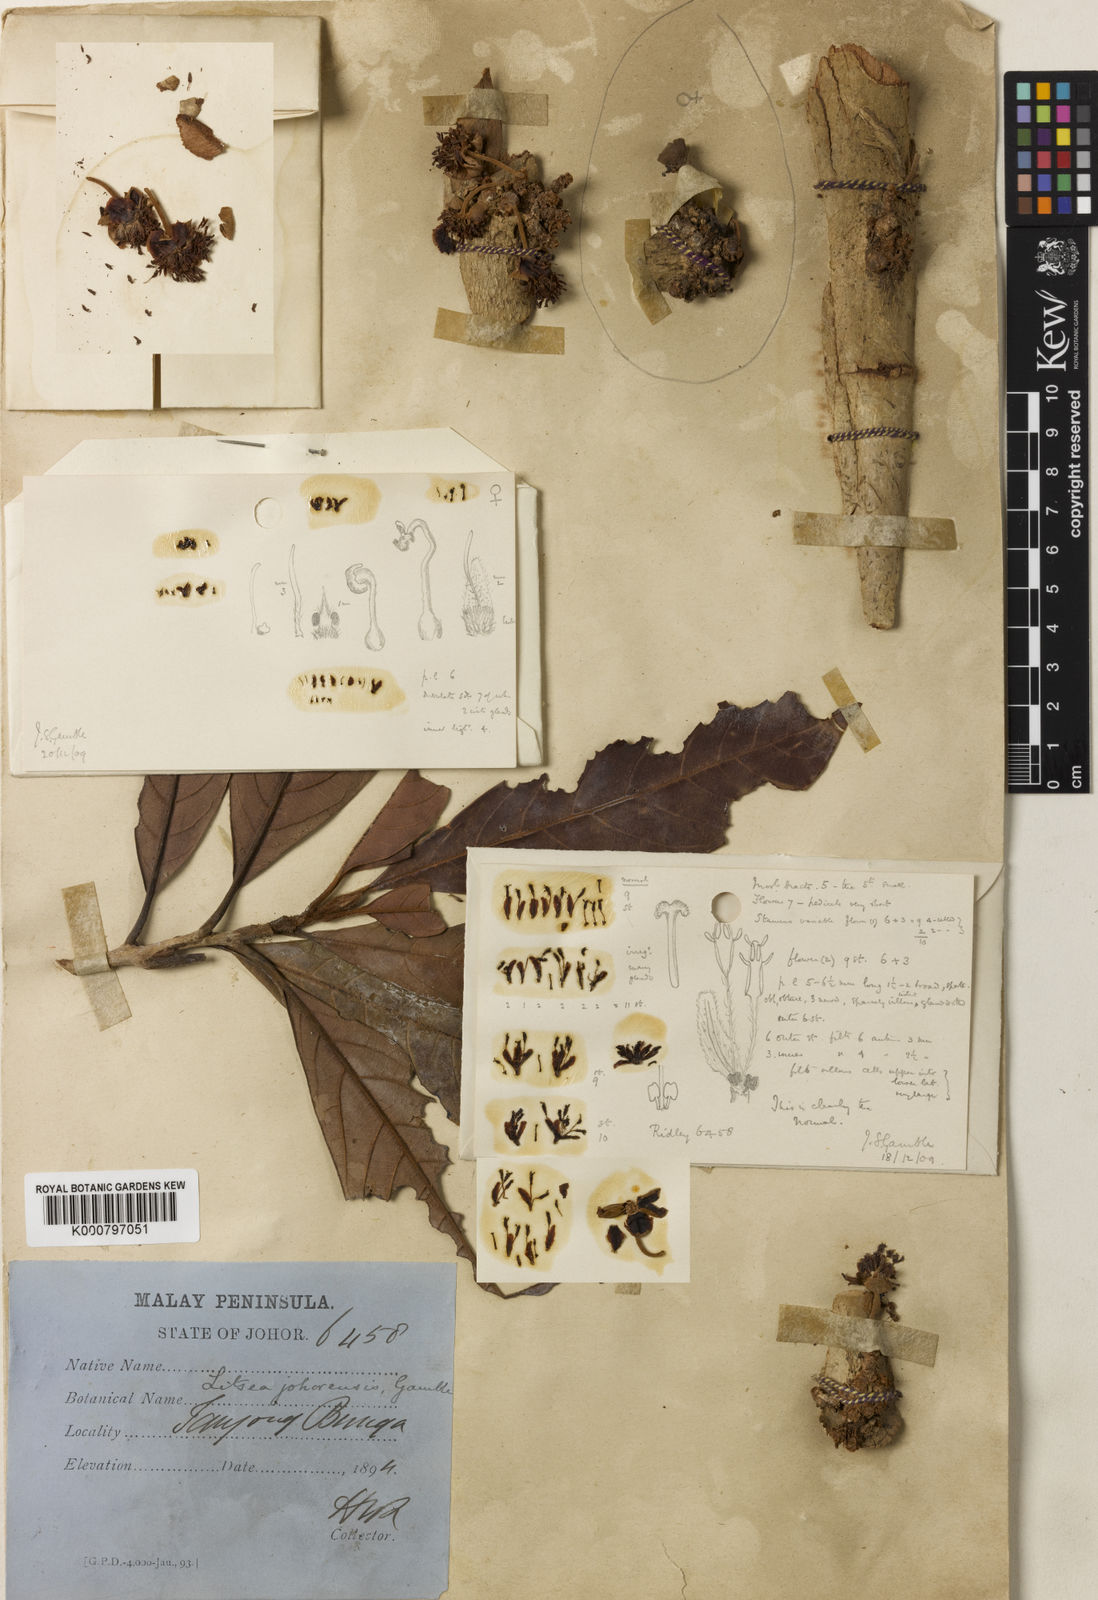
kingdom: Plantae
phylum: Tracheophyta
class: Magnoliopsida
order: Laurales
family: Lauraceae
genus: Litsea
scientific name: Litsea johorensis
